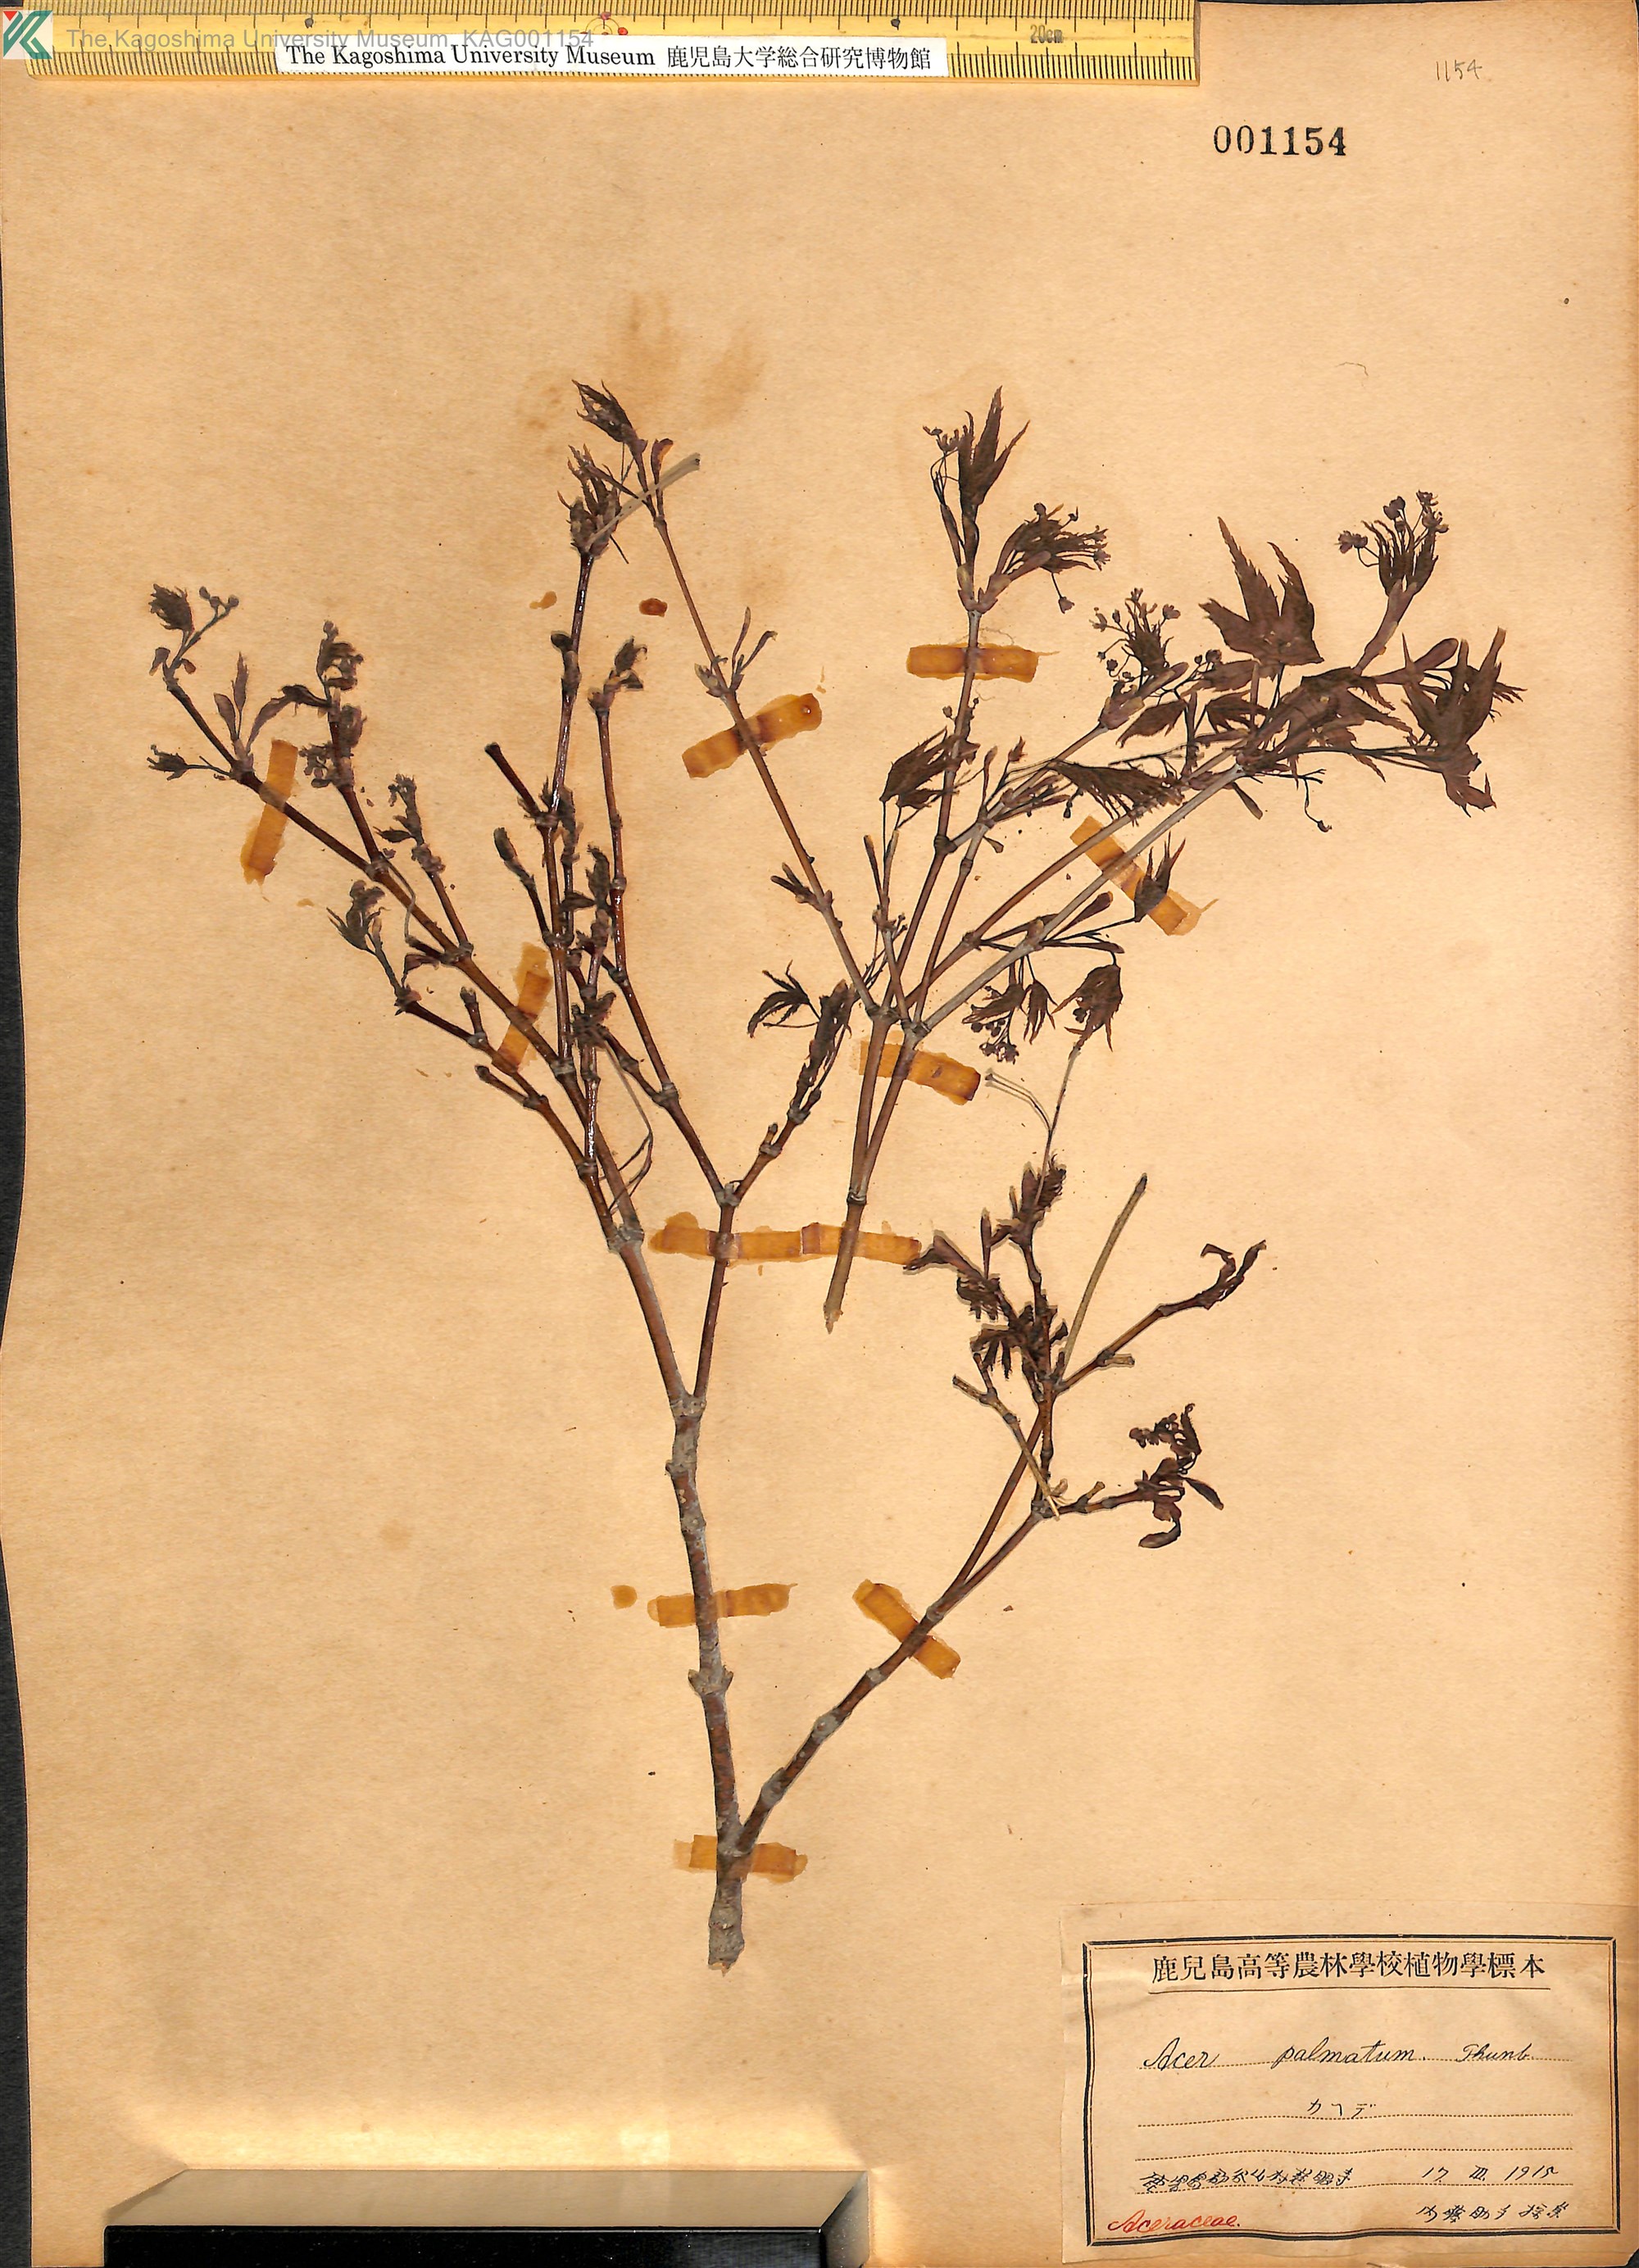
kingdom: Plantae
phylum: Tracheophyta
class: Magnoliopsida
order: Sapindales
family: Sapindaceae
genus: Acer
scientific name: Acer palmatum
